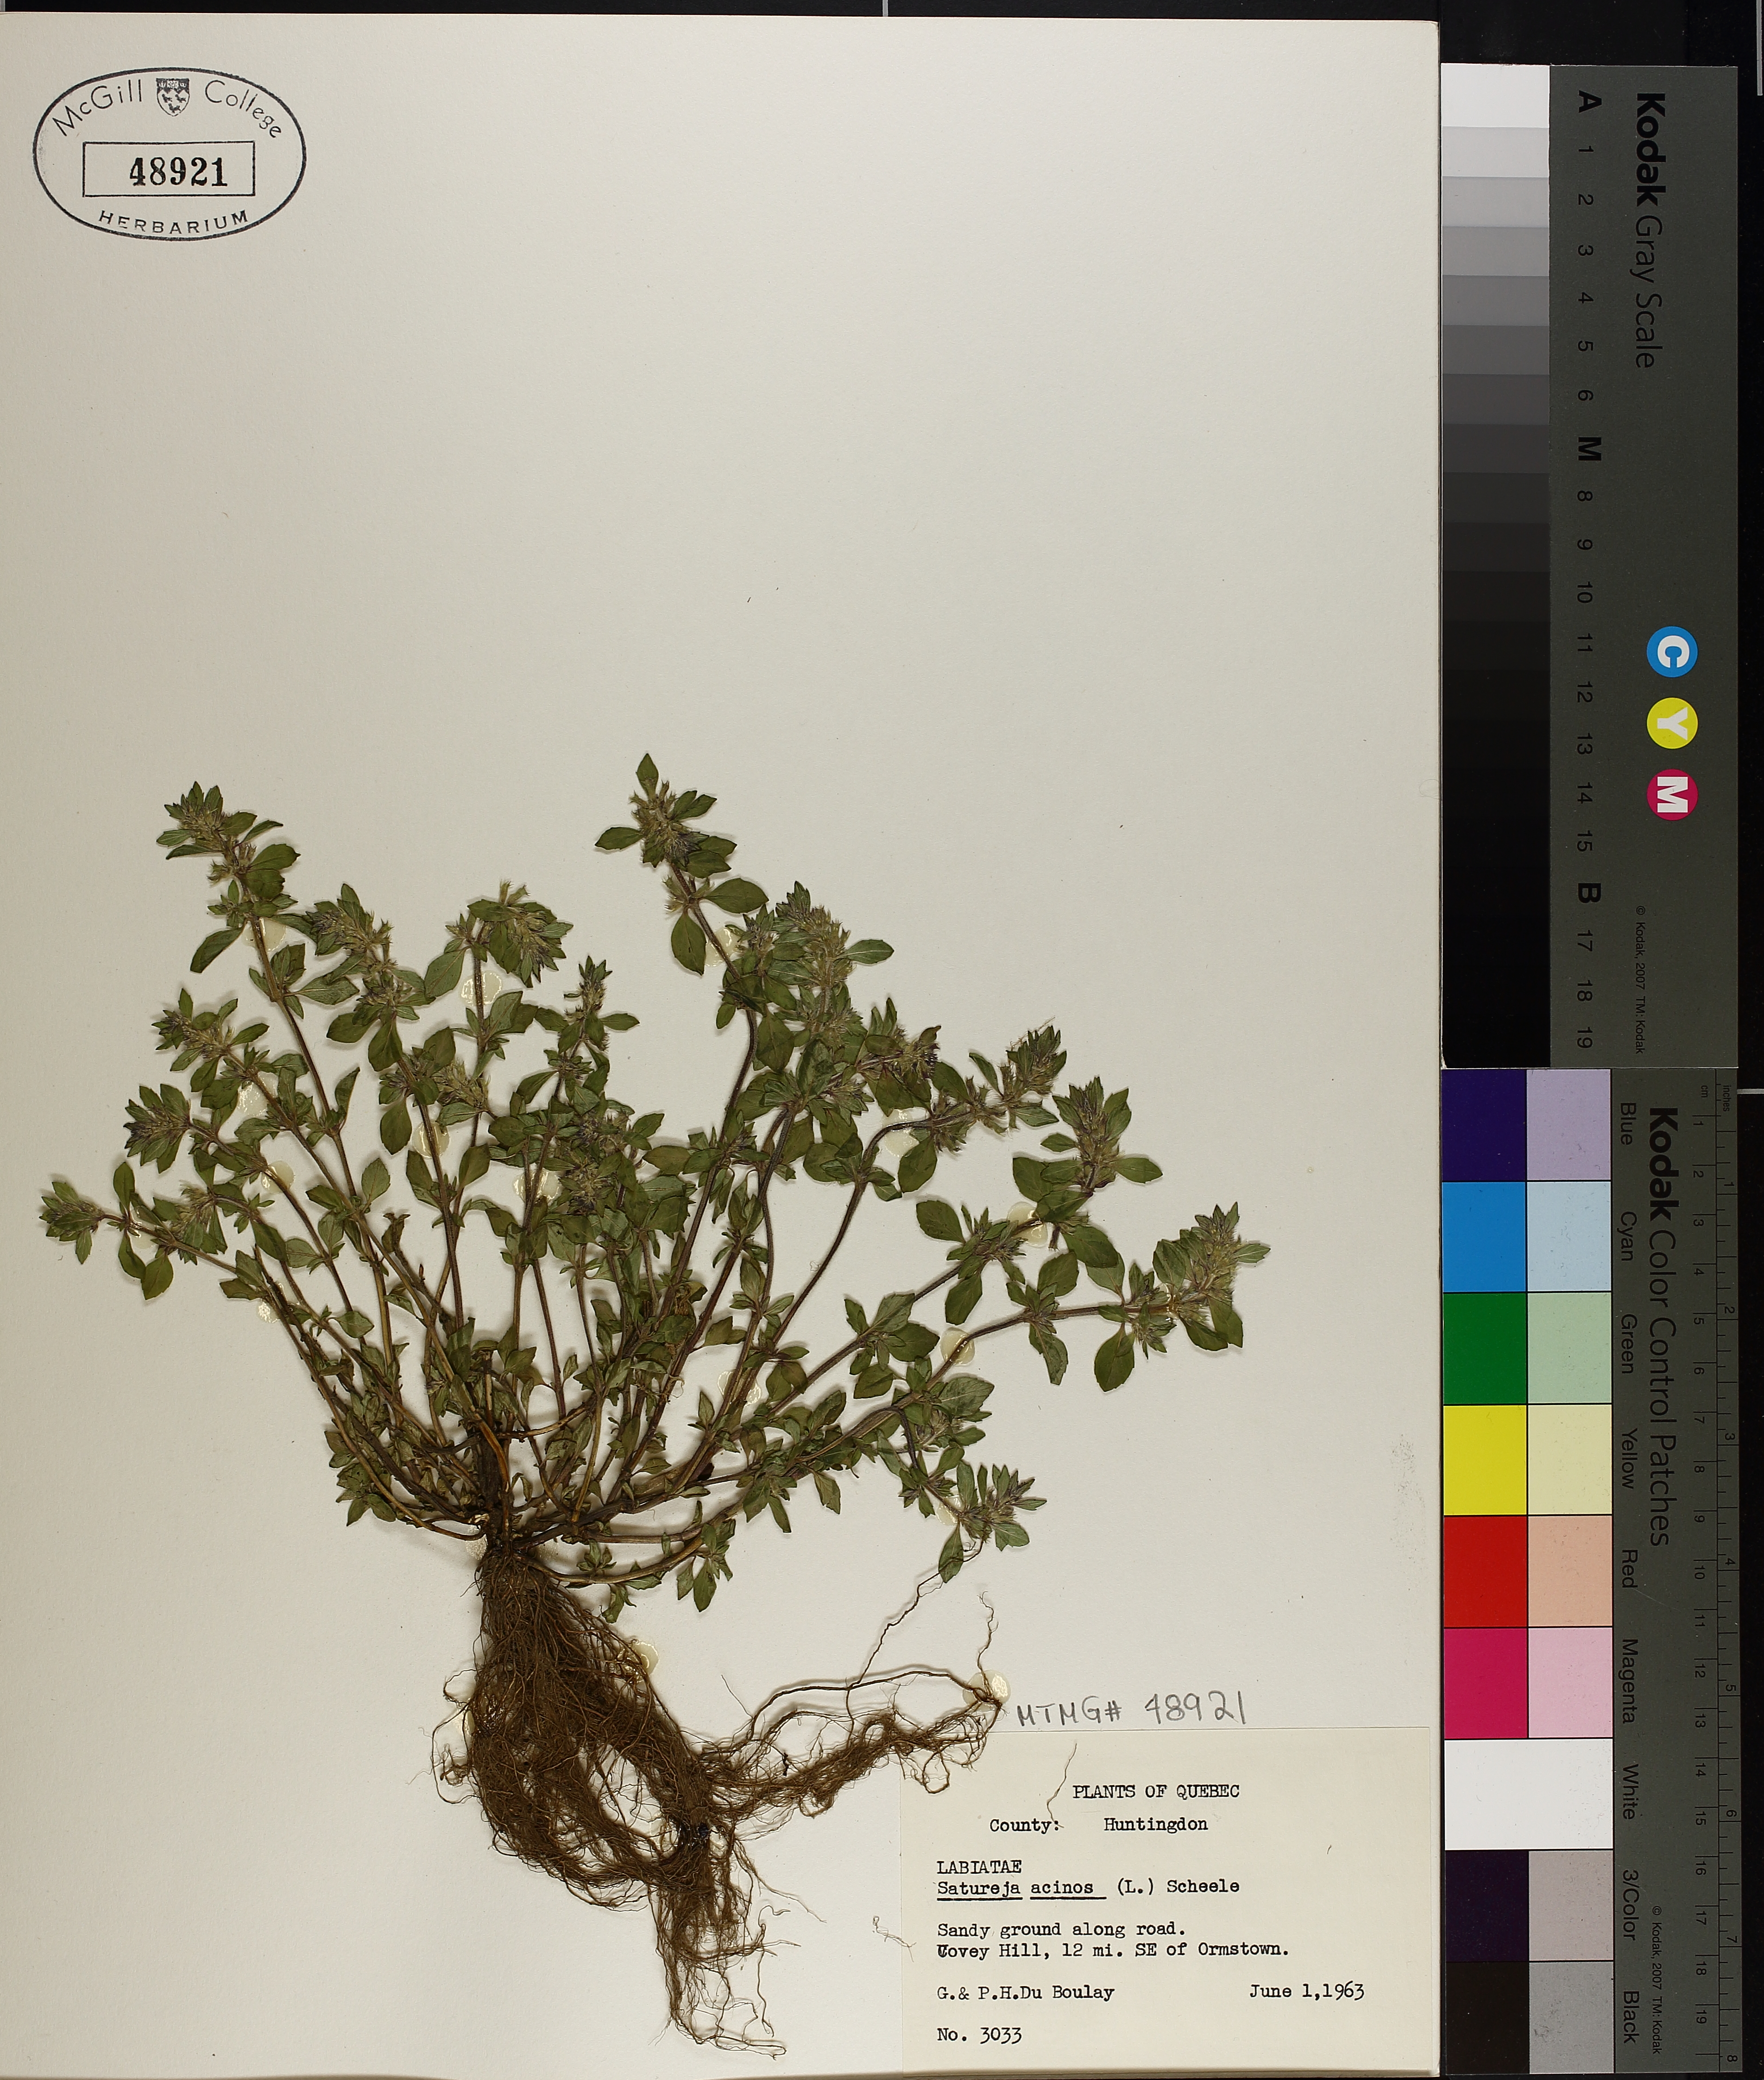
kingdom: Plantae
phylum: Tracheophyta
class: Magnoliopsida
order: Lamiales
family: Lamiaceae
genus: Clinopodium
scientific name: Clinopodium acinos
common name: Basil thyme
